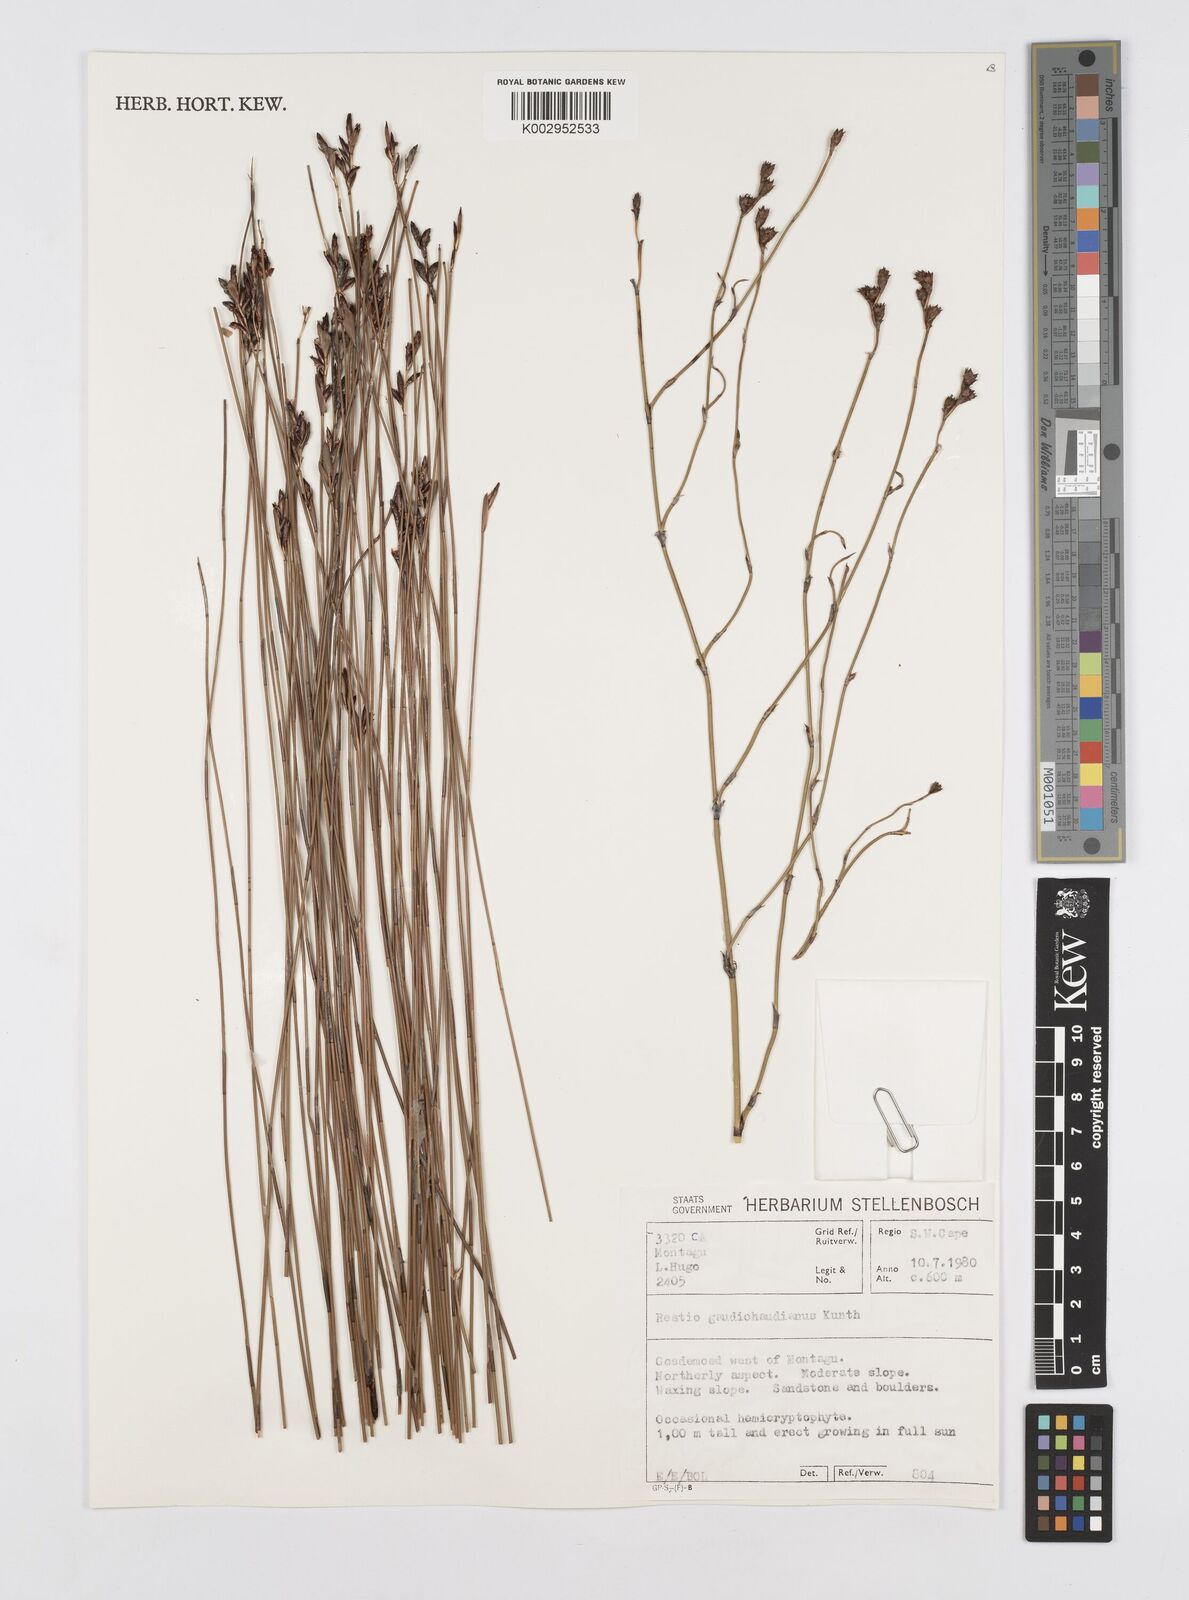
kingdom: Plantae
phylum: Tracheophyta
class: Liliopsida
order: Poales
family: Restionaceae
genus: Restio
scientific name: Restio gaudichaudianus
